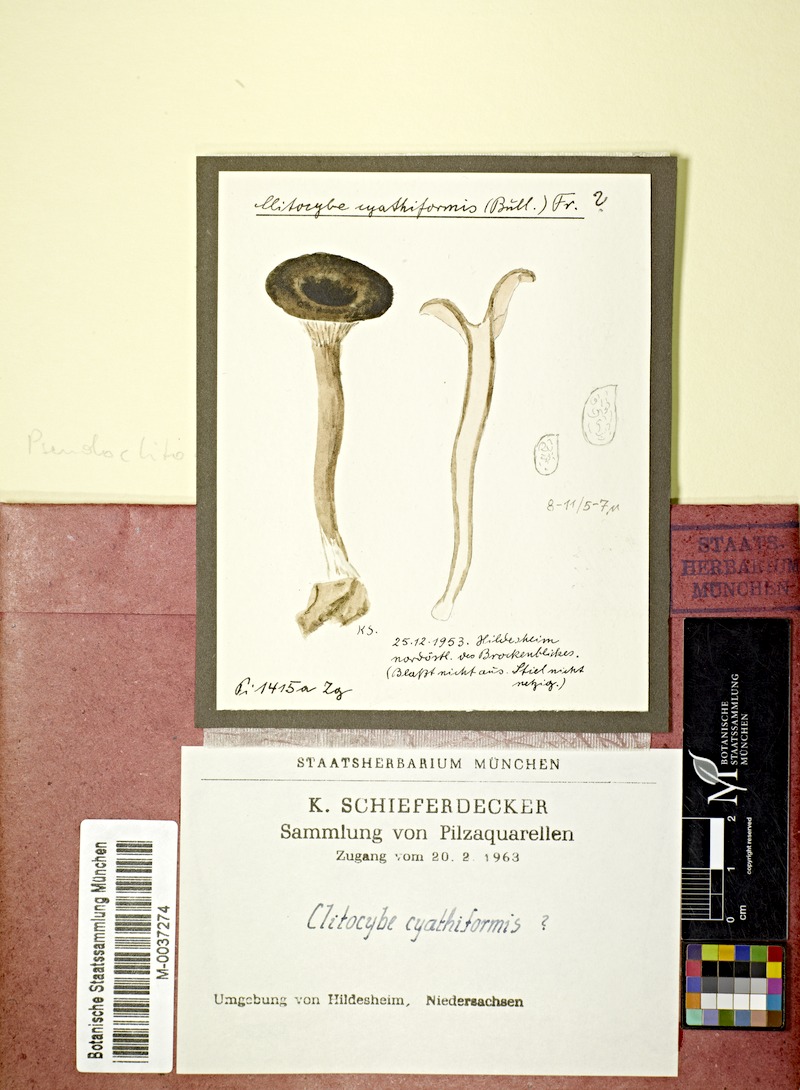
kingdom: Fungi
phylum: Basidiomycota
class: Agaricomycetes
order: Agaricales
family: Pseudoclitocybaceae
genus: Pseudoclitocybe
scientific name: Pseudoclitocybe cyathiformis
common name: Goblet
